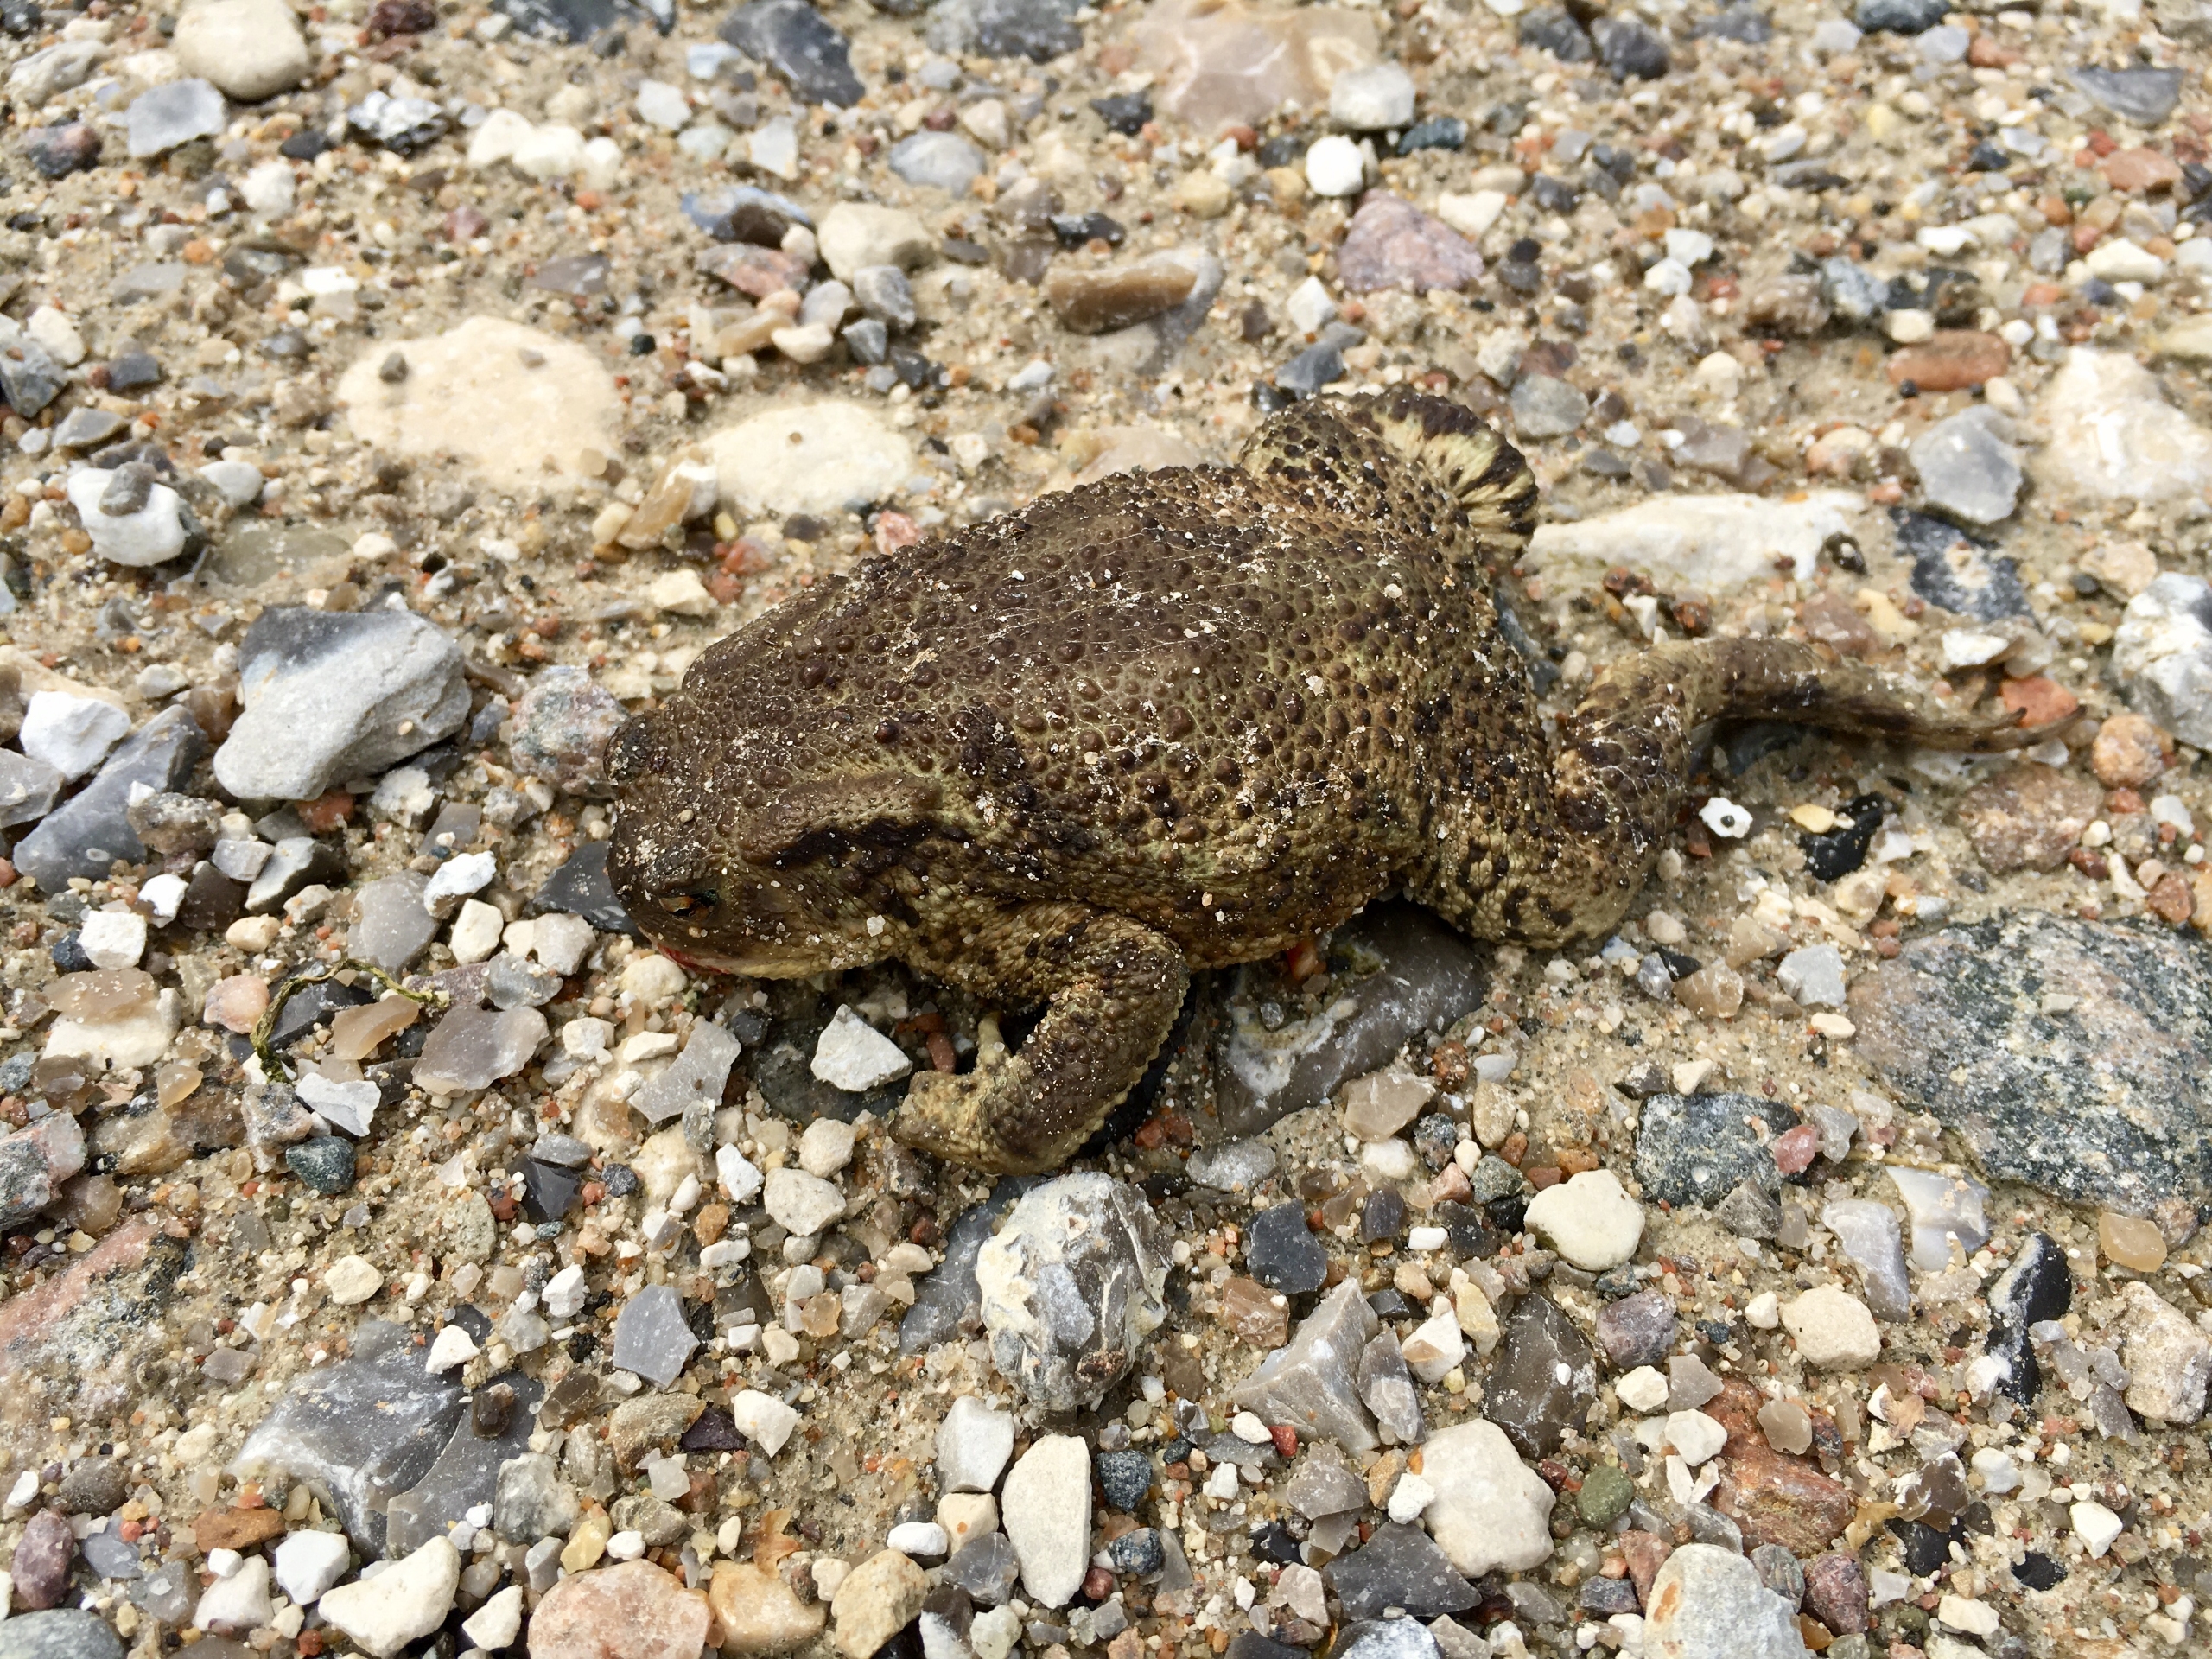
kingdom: Animalia
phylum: Chordata
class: Amphibia
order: Anura
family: Bufonidae
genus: Bufo
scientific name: Bufo bufo
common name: Skrubtudse
